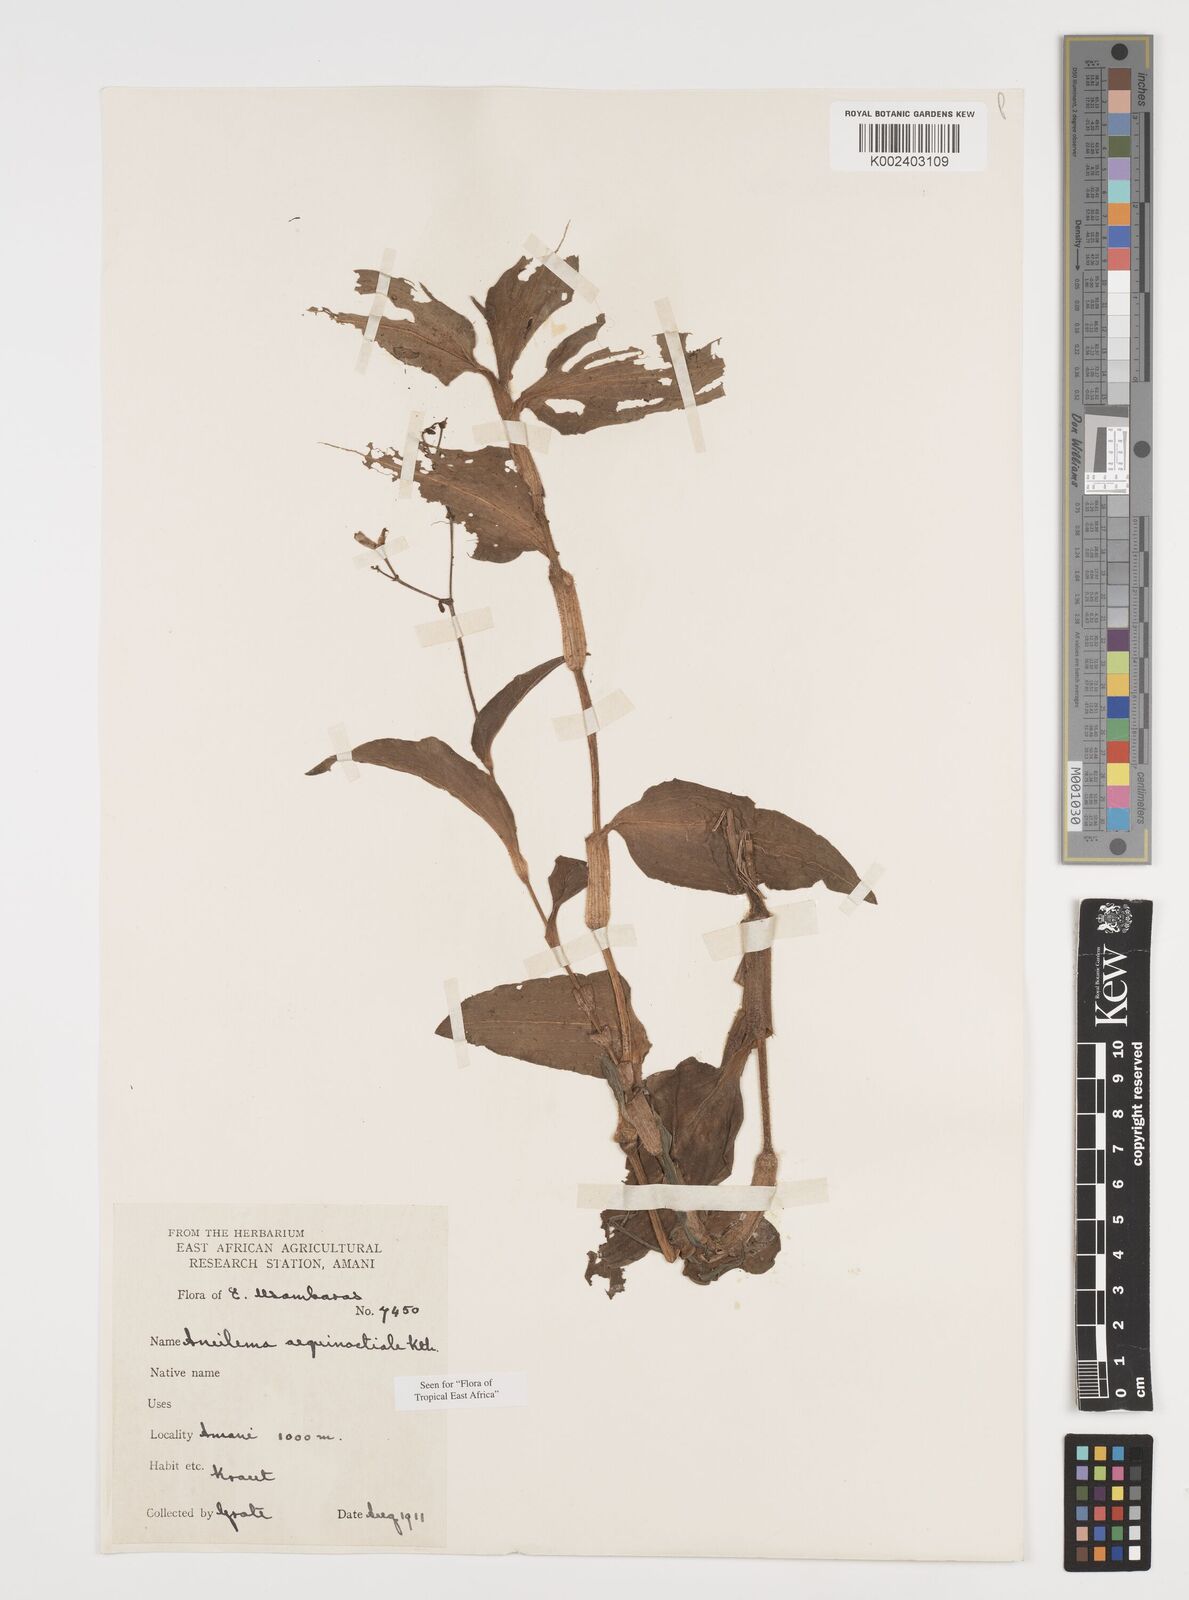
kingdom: Plantae
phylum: Tracheophyta
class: Liliopsida
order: Commelinales
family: Commelinaceae
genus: Aneilema
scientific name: Aneilema aequinoctiale
